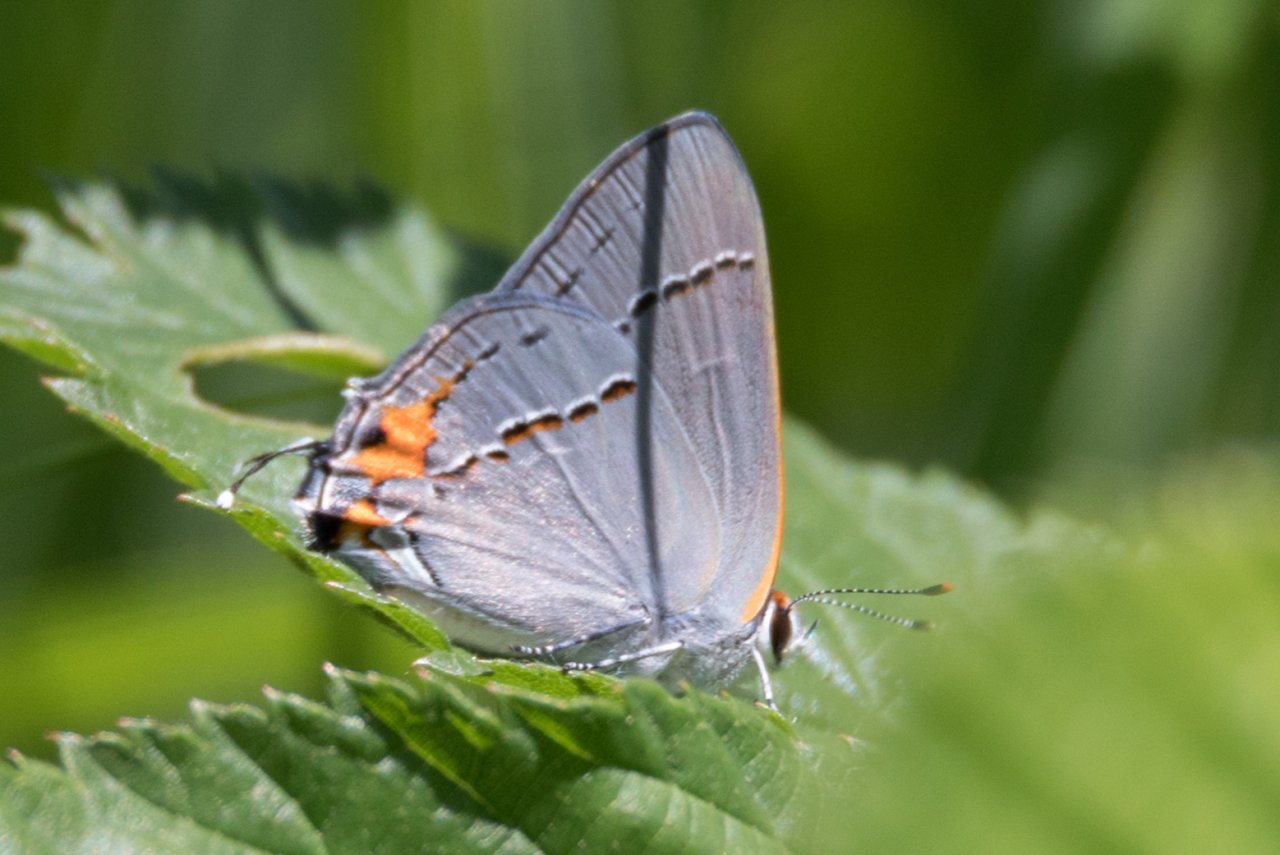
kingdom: Animalia
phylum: Arthropoda
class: Insecta
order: Lepidoptera
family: Lycaenidae
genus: Strymon
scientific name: Strymon melinus
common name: Gray Hairstreak
